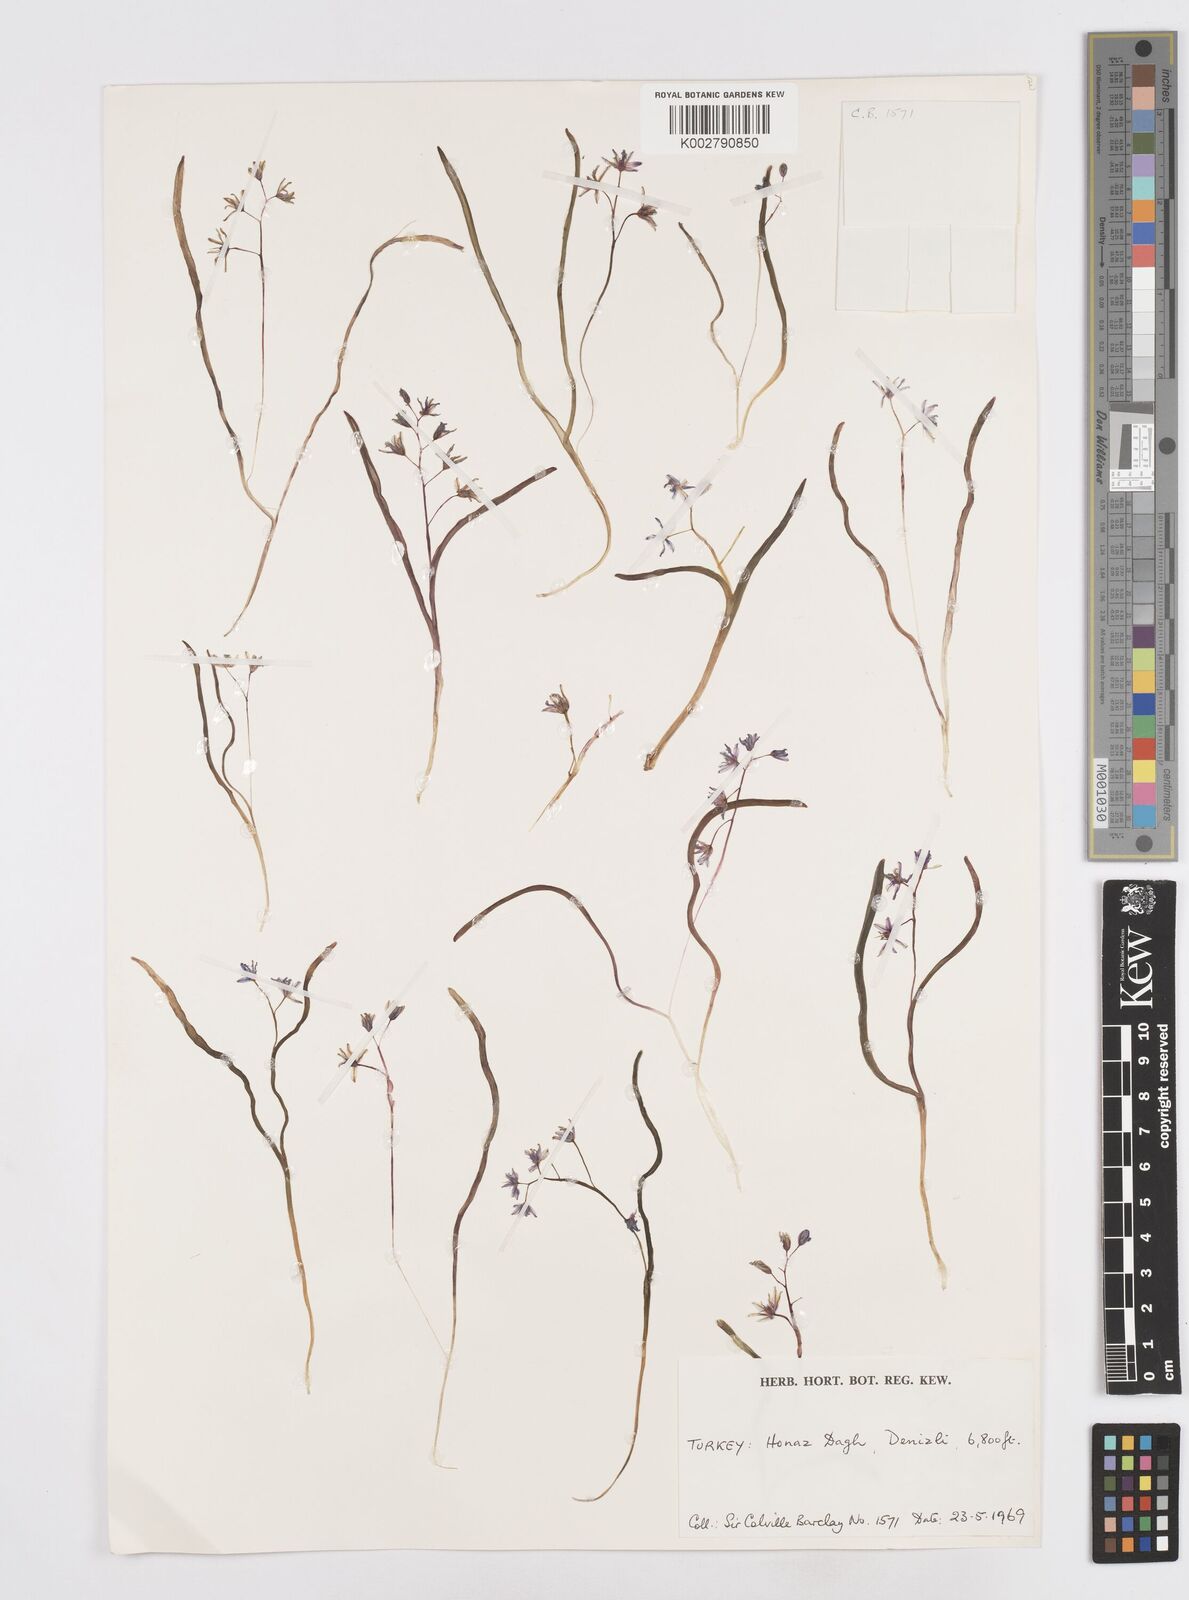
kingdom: Plantae
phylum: Tracheophyta
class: Liliopsida
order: Asparagales
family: Asparagaceae
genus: Scilla
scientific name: Scilla bifolia
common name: Alpine squill
